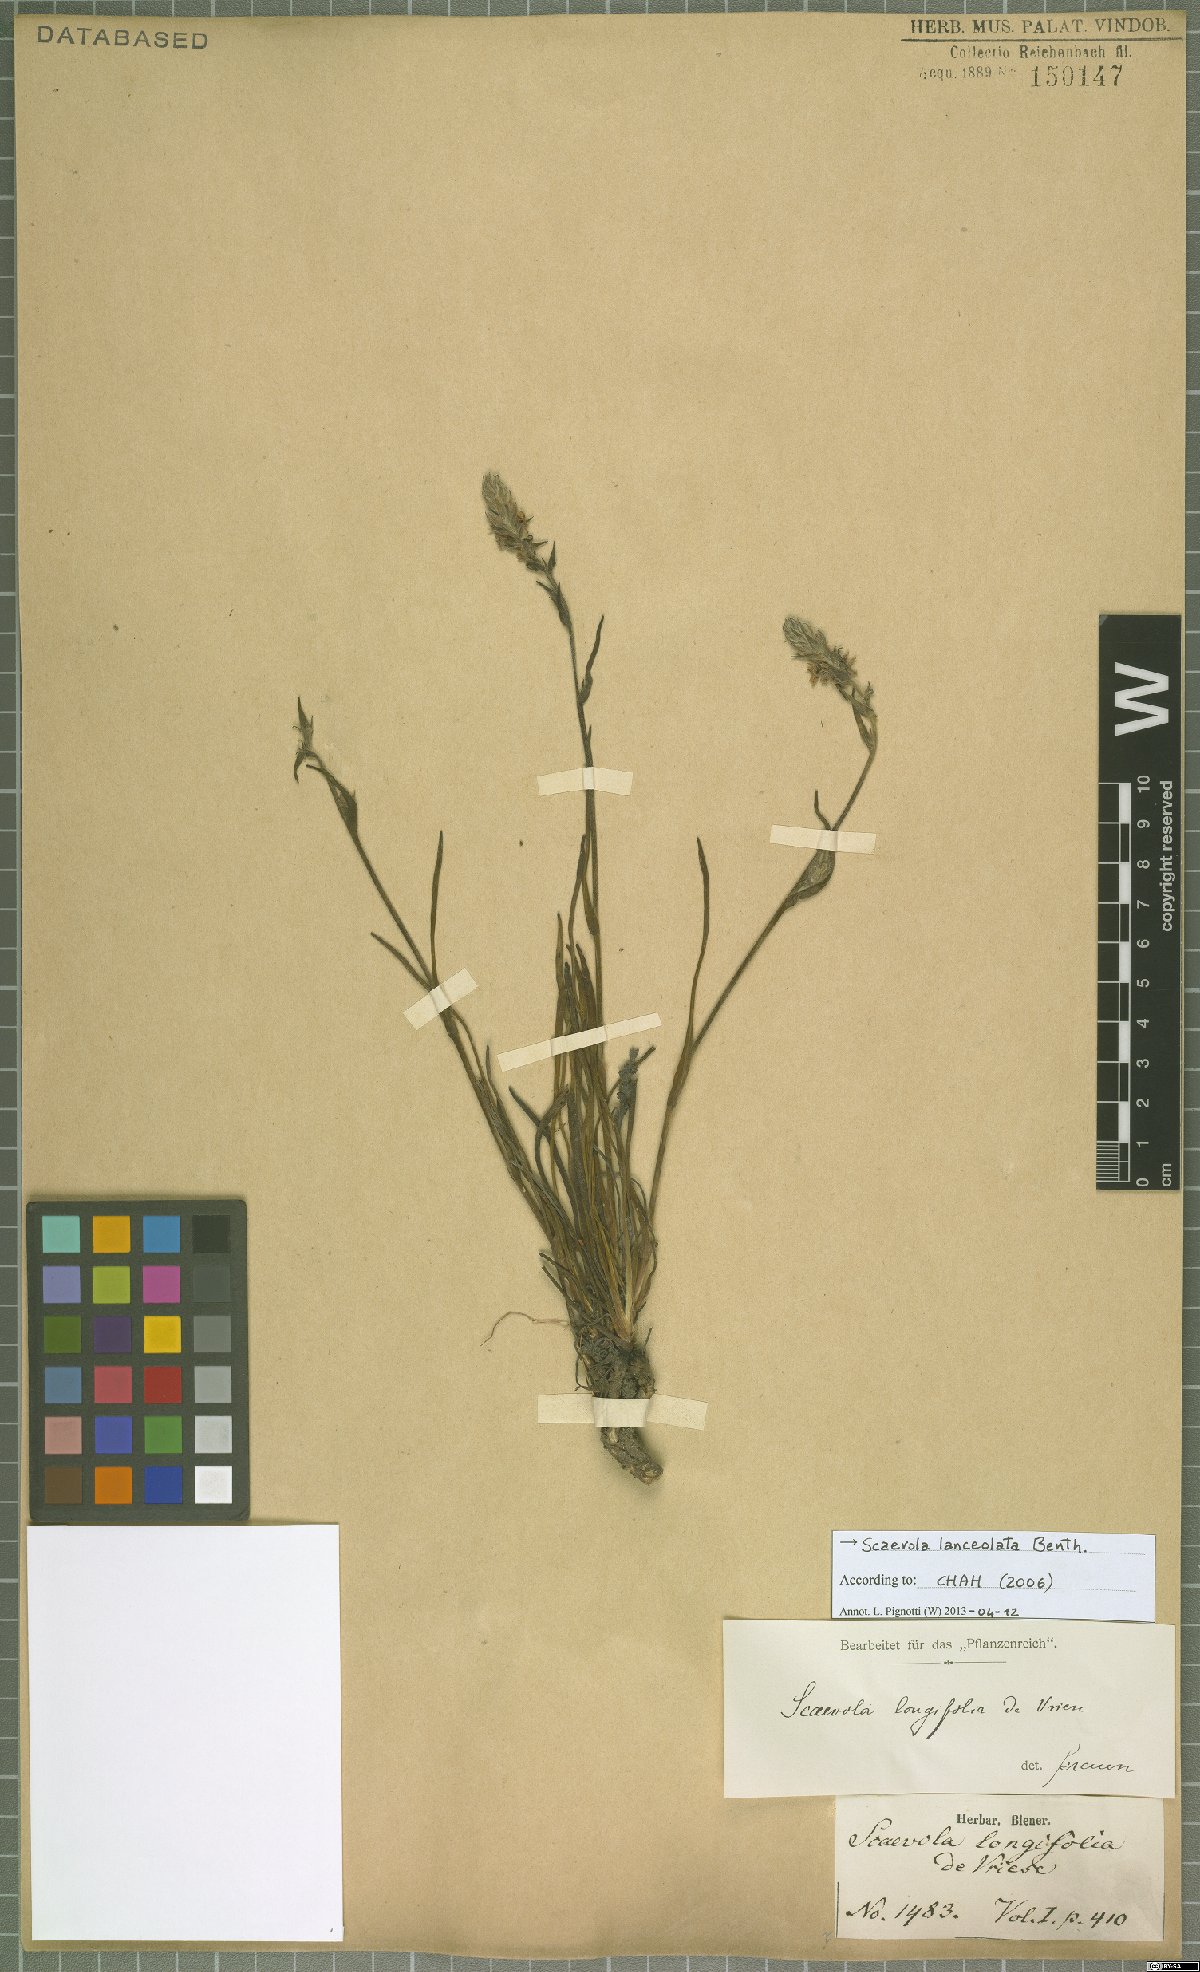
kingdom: Plantae
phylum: Tracheophyta
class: Magnoliopsida
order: Asterales
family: Goodeniaceae
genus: Scaevola
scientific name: Scaevola lanceolata
